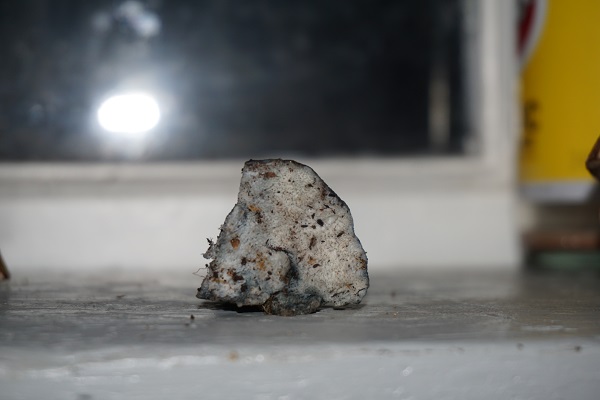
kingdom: Fungi
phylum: Basidiomycota
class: Agaricomycetes
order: Polyporales
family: Polyporaceae
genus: Cyanosporus
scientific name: Cyanosporus caesius
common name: blålig kødporesvamp
